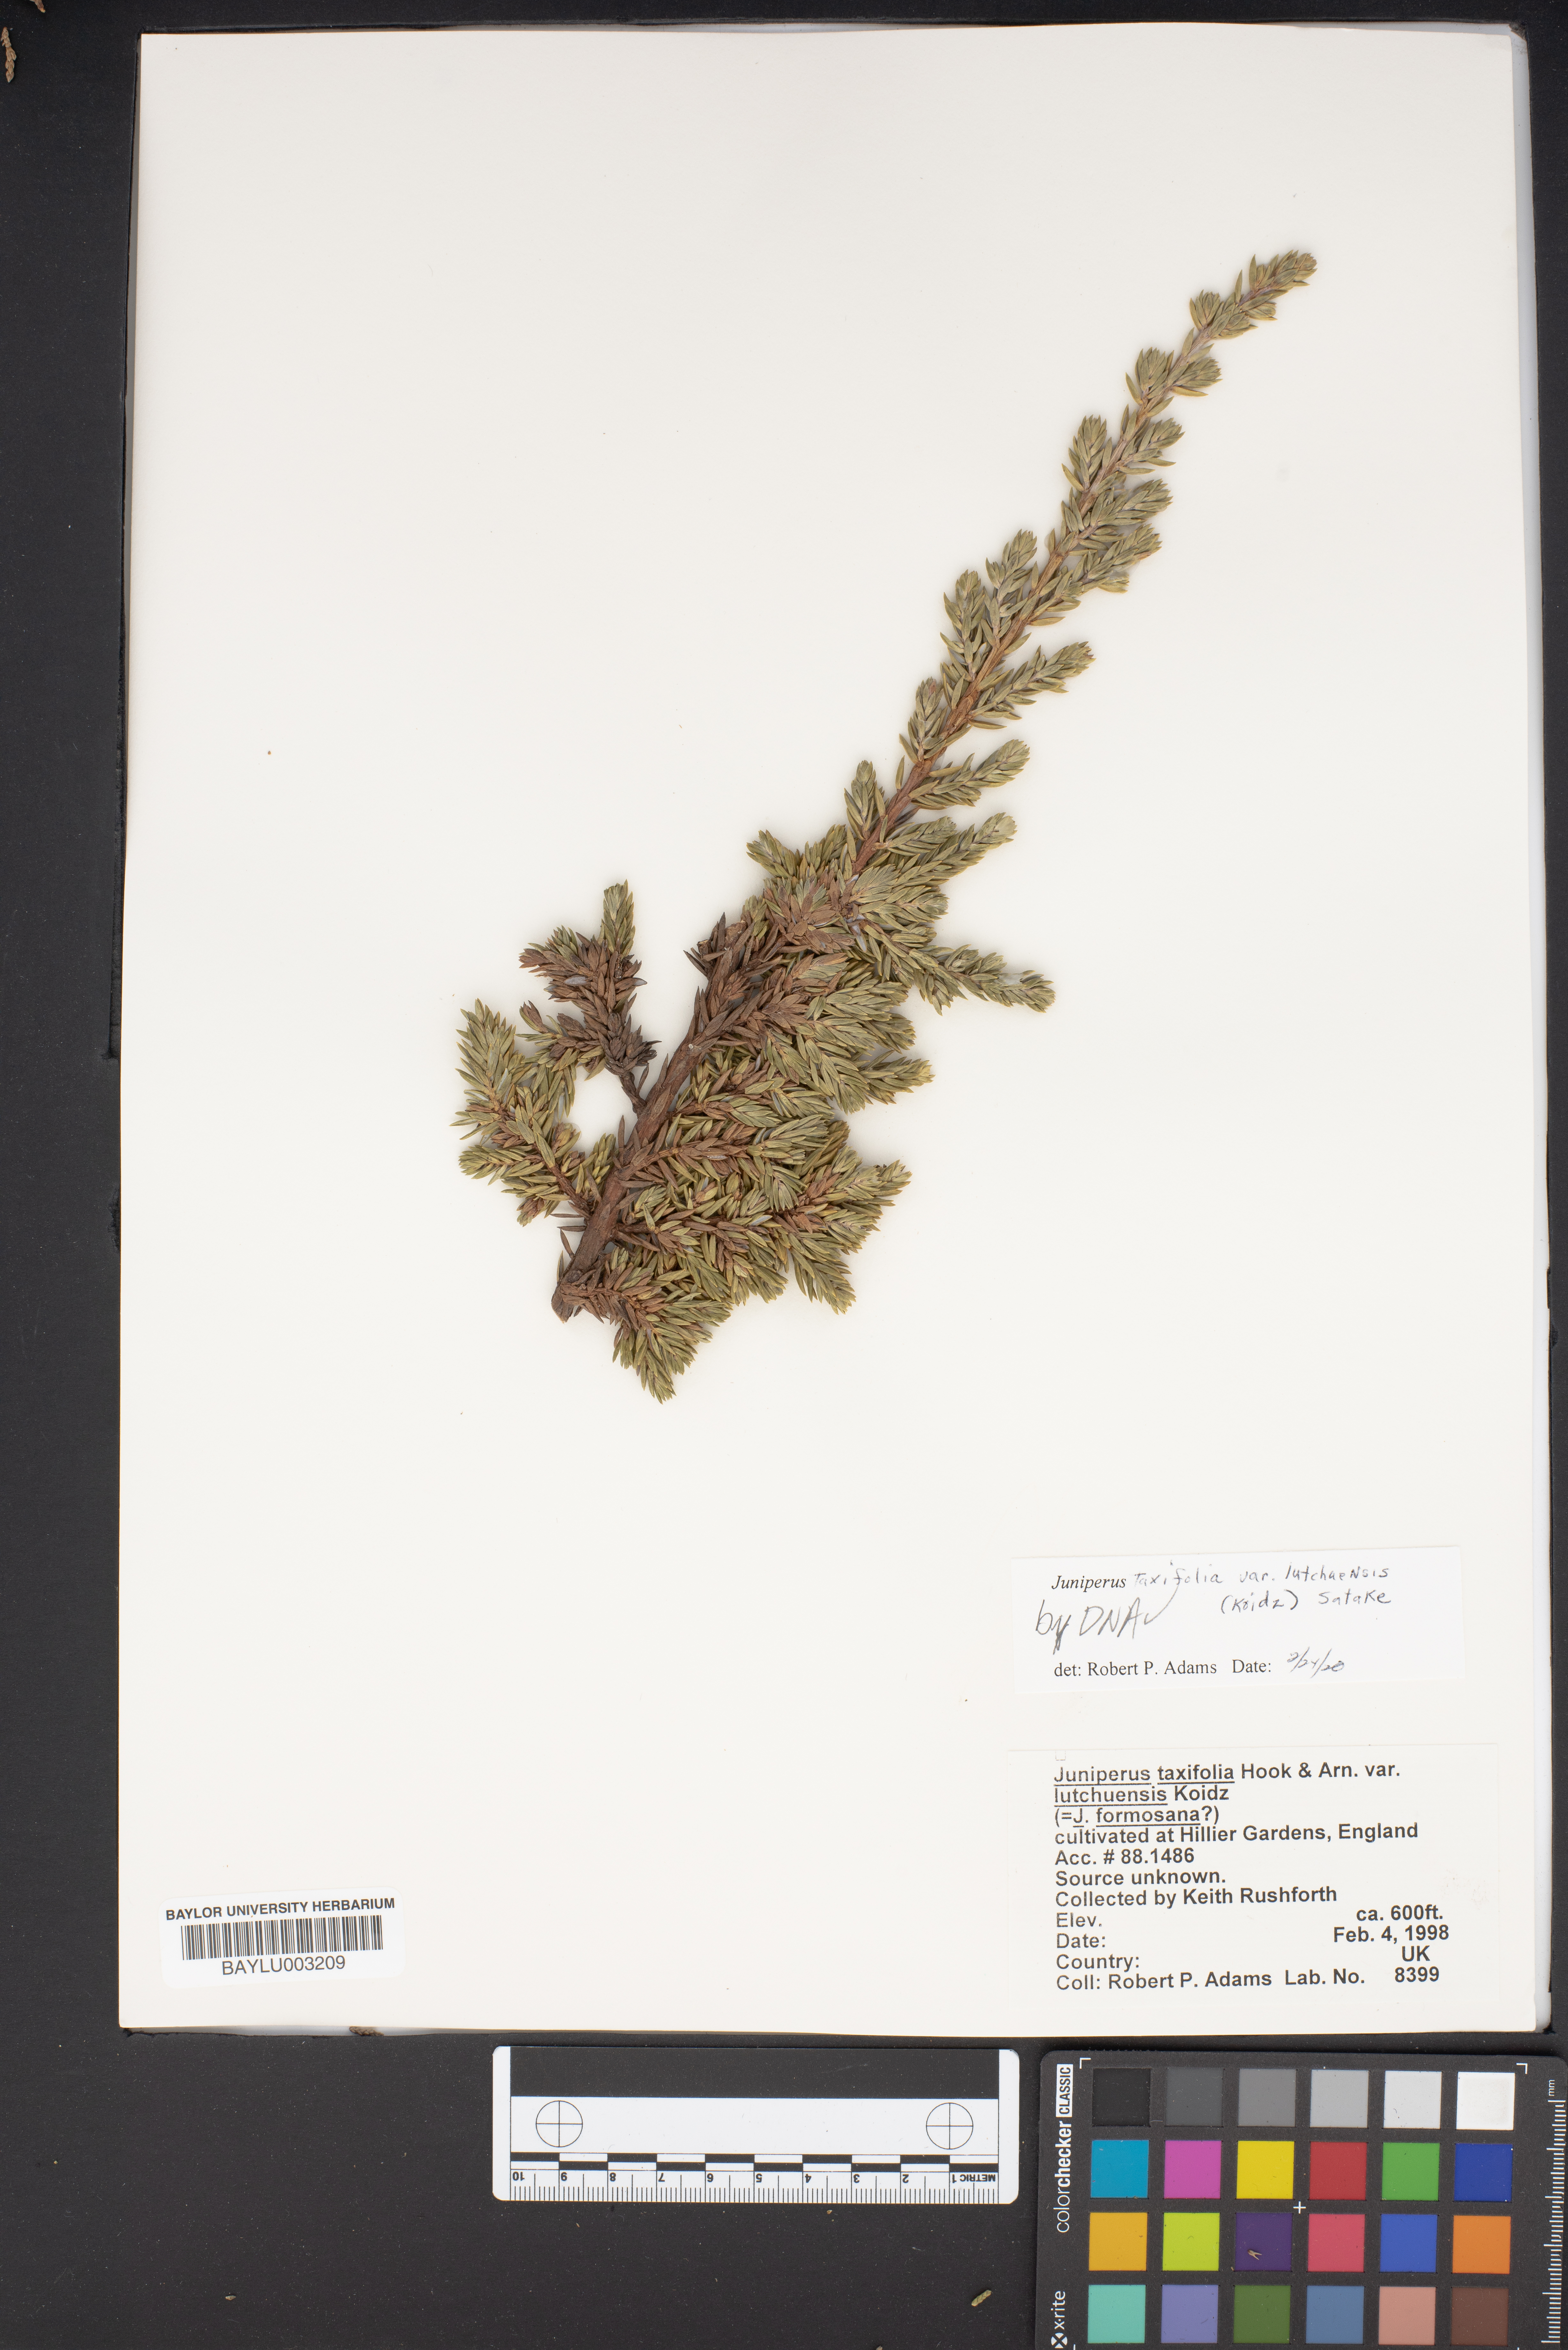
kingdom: Plantae
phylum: Tracheophyta
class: Pinopsida
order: Pinales
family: Cupressaceae
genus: Juniperus
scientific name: Juniperus taxifolia
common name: Fitcheisi
